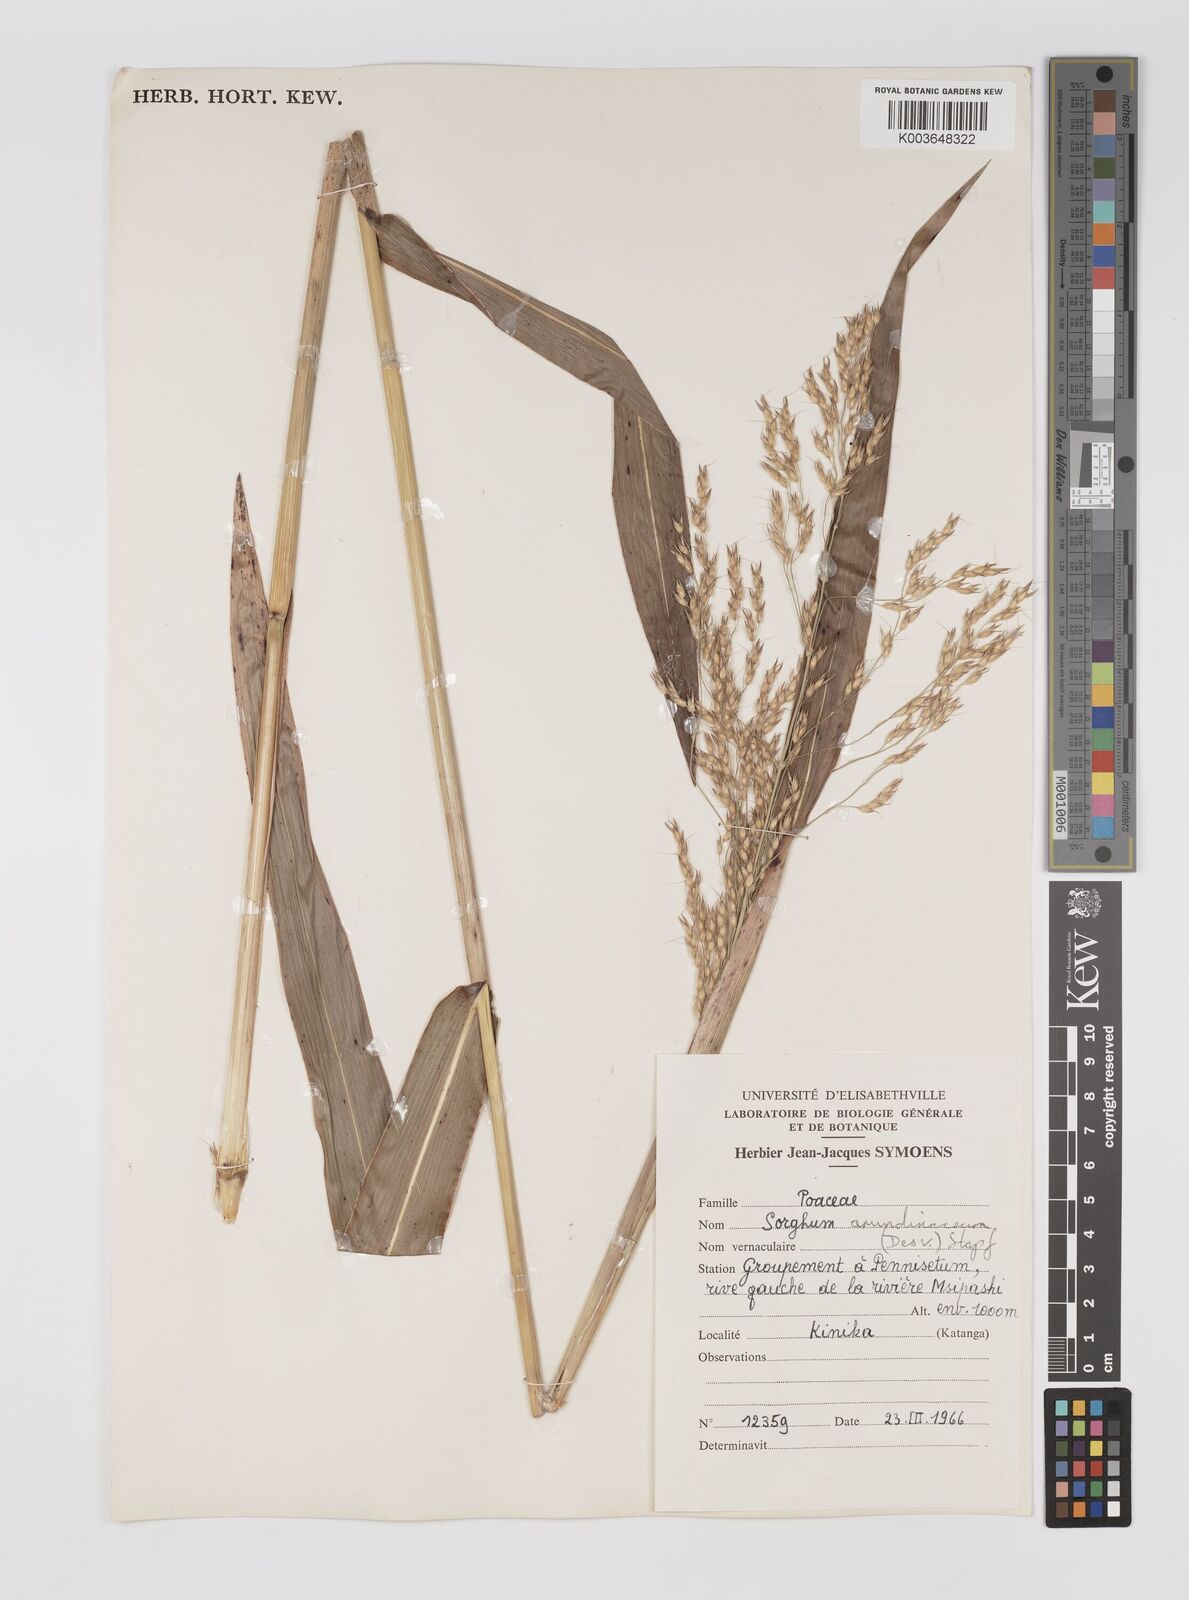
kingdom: Plantae
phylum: Tracheophyta
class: Liliopsida
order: Poales
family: Poaceae
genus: Sorghum
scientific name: Sorghum arundinaceum
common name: Sorghum
